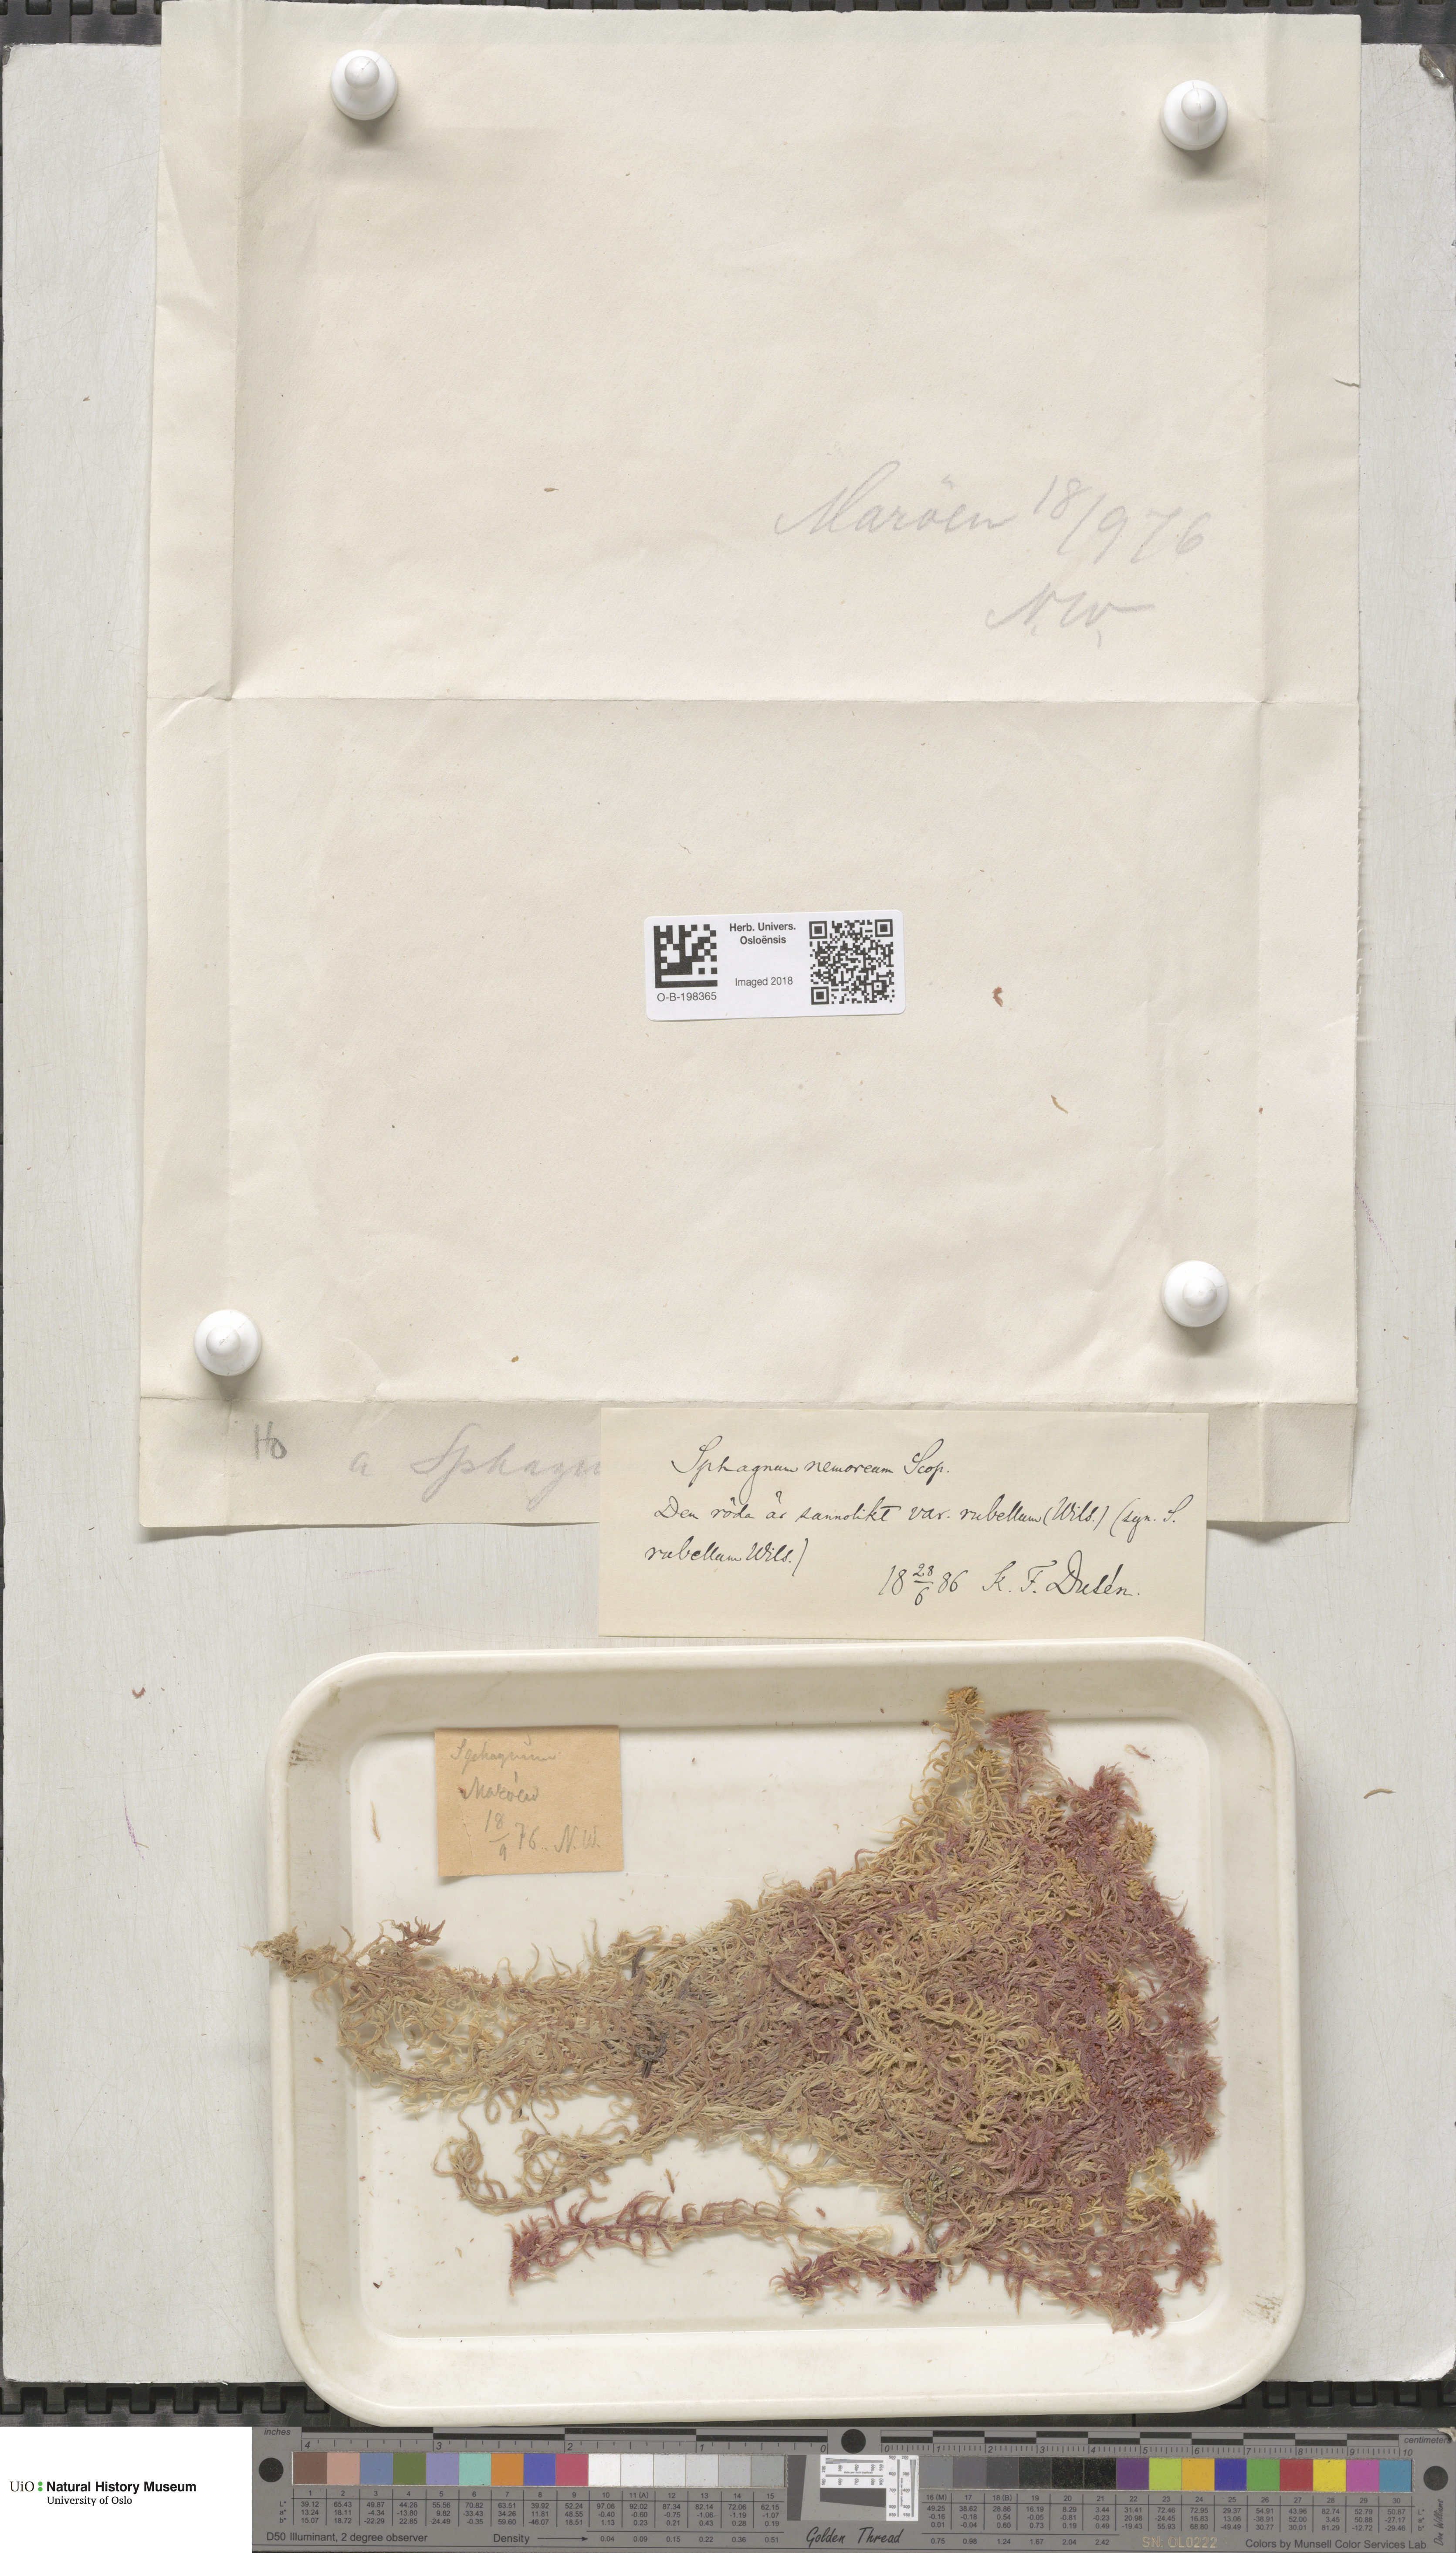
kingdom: Plantae
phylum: Bryophyta
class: Sphagnopsida
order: Sphagnales
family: Sphagnaceae
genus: Sphagnum
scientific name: Sphagnum capillifolium
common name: Small red peat moss
